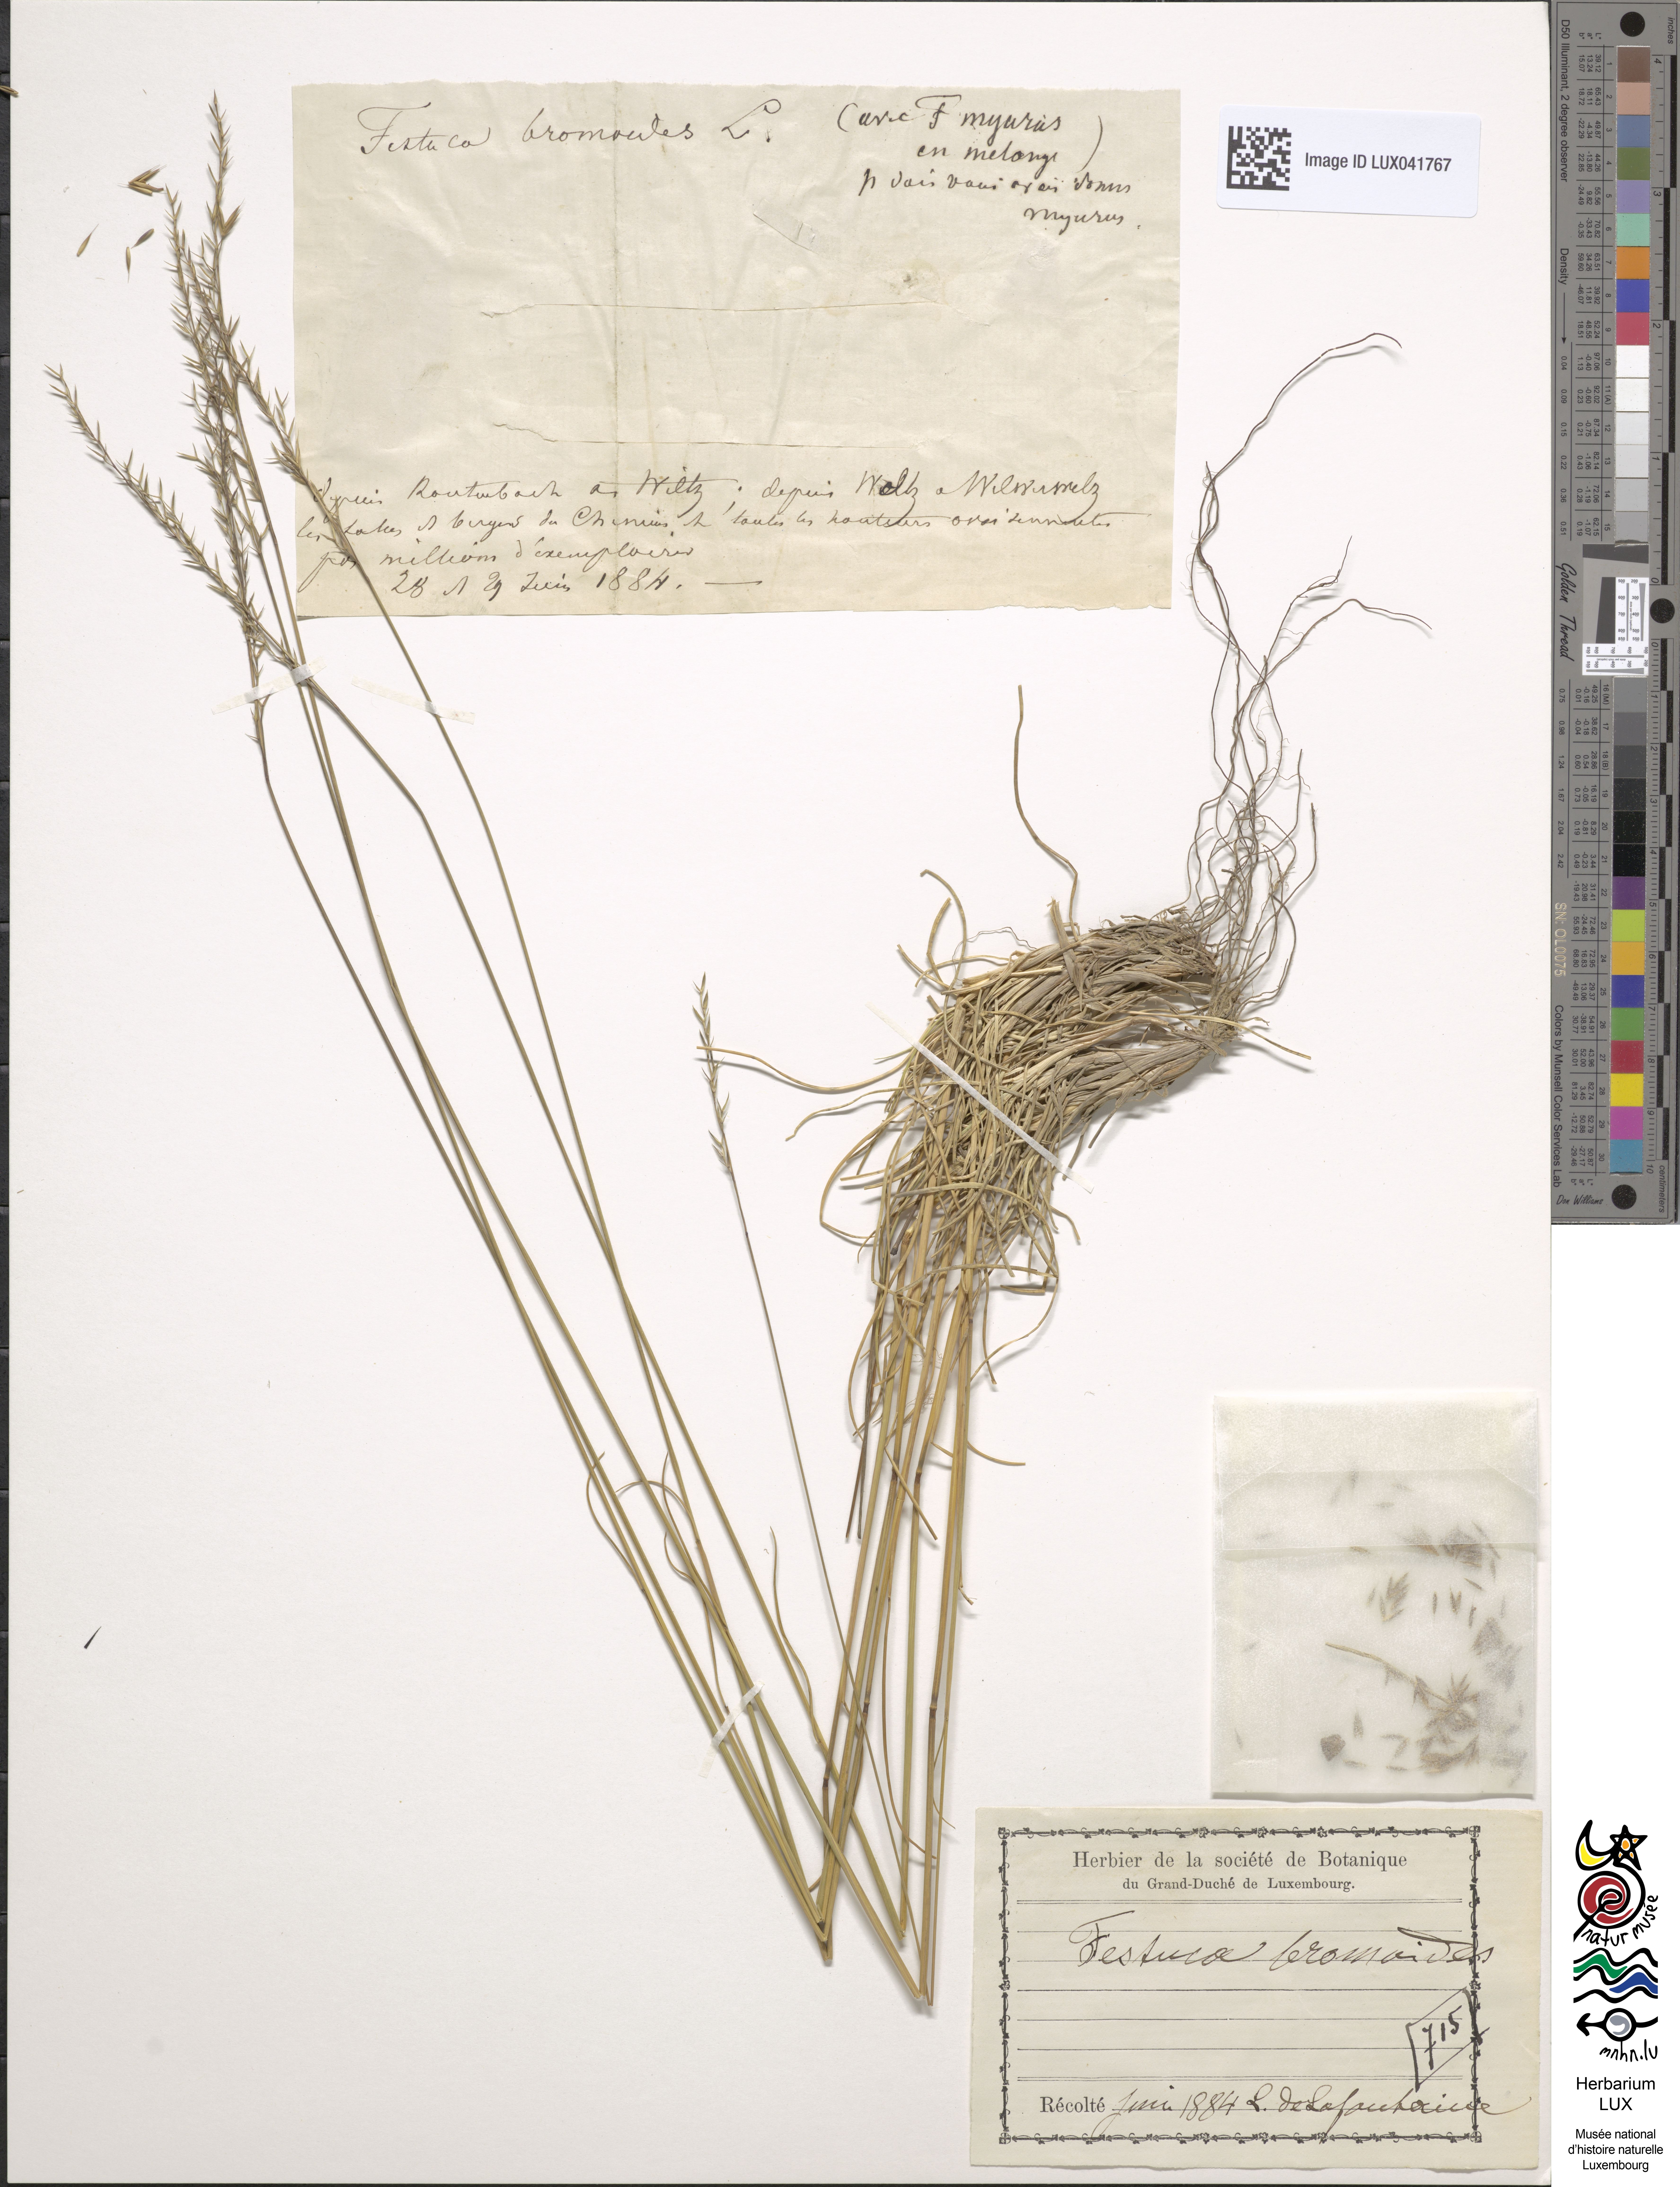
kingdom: Plantae
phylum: Tracheophyta
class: Liliopsida
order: Poales
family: Poaceae
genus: Festuca
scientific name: Festuca bromoides
